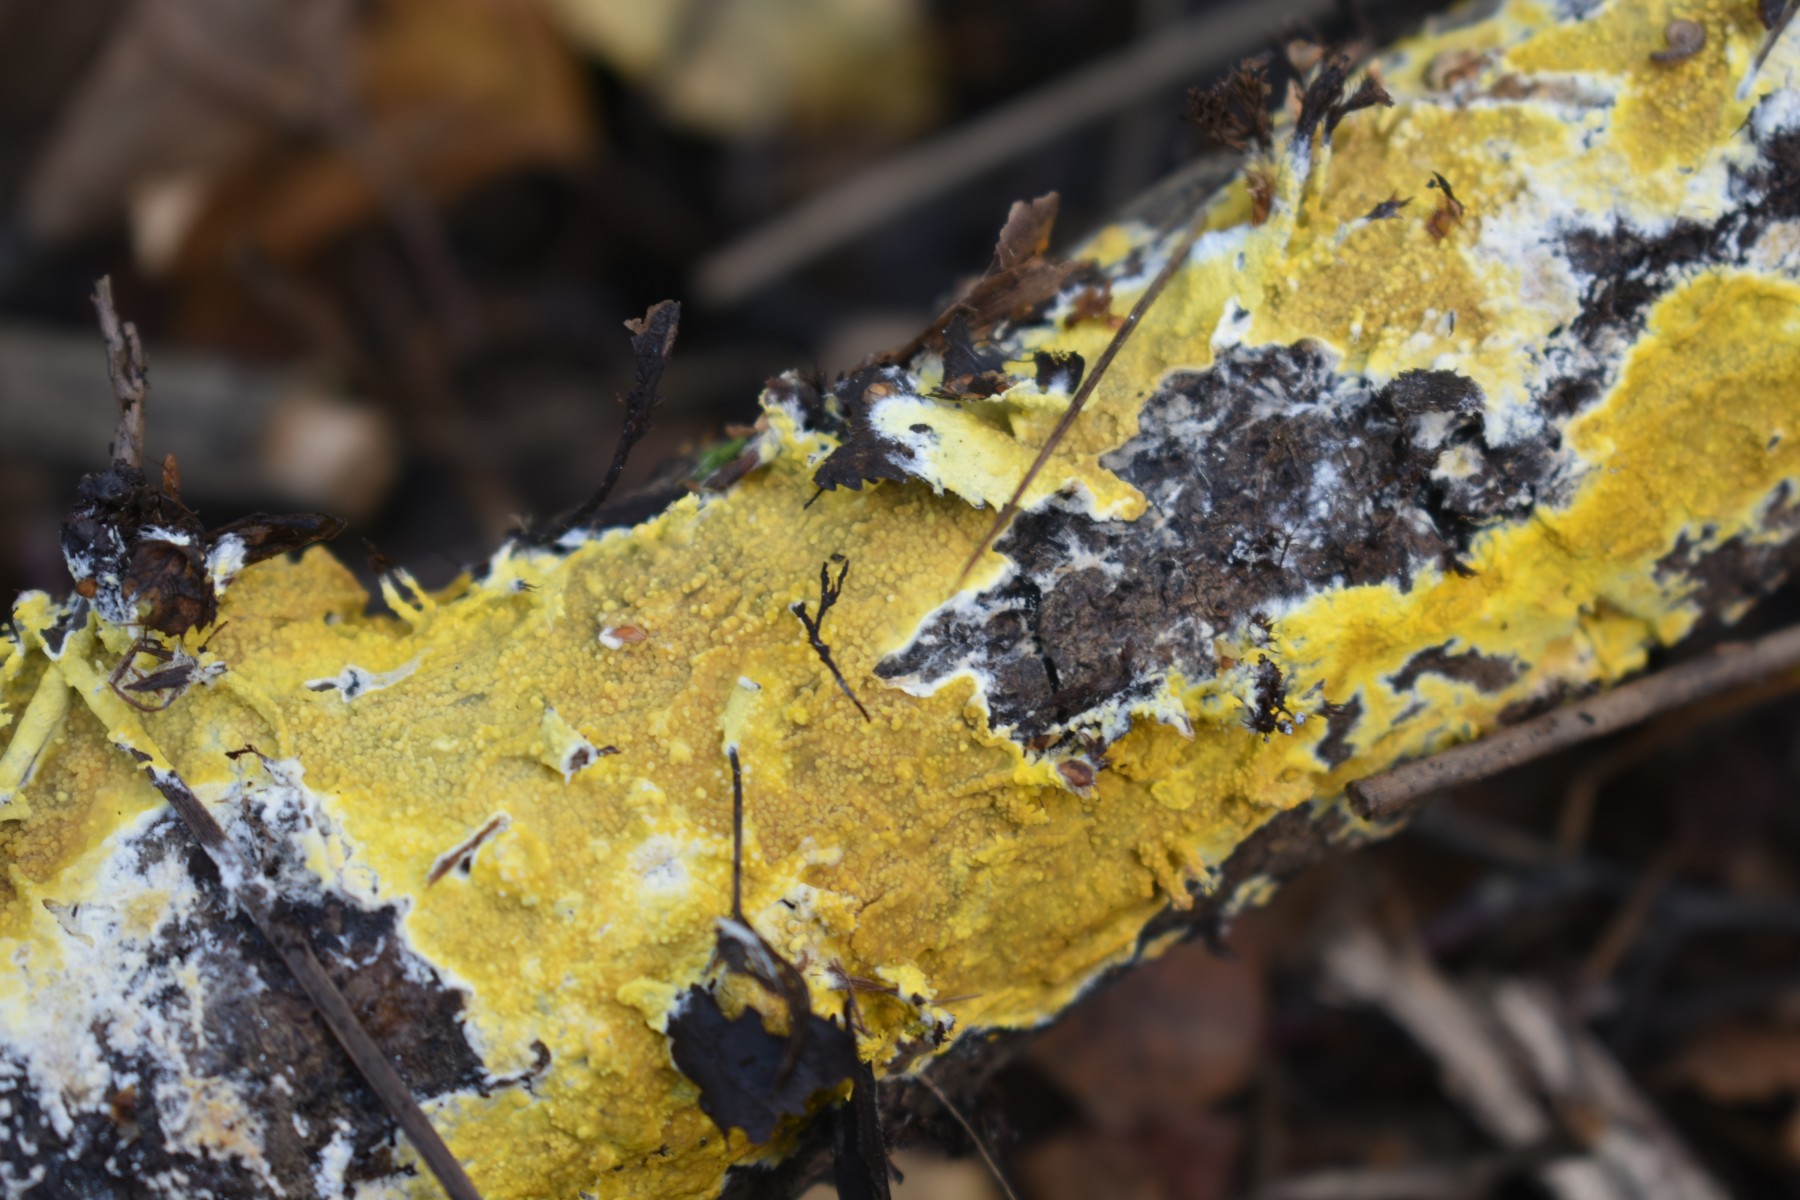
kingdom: Fungi
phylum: Basidiomycota
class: Agaricomycetes
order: Polyporales
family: Meruliaceae
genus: Phlebiodontia
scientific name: Phlebiodontia subochracea
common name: svovl-åresvamp
